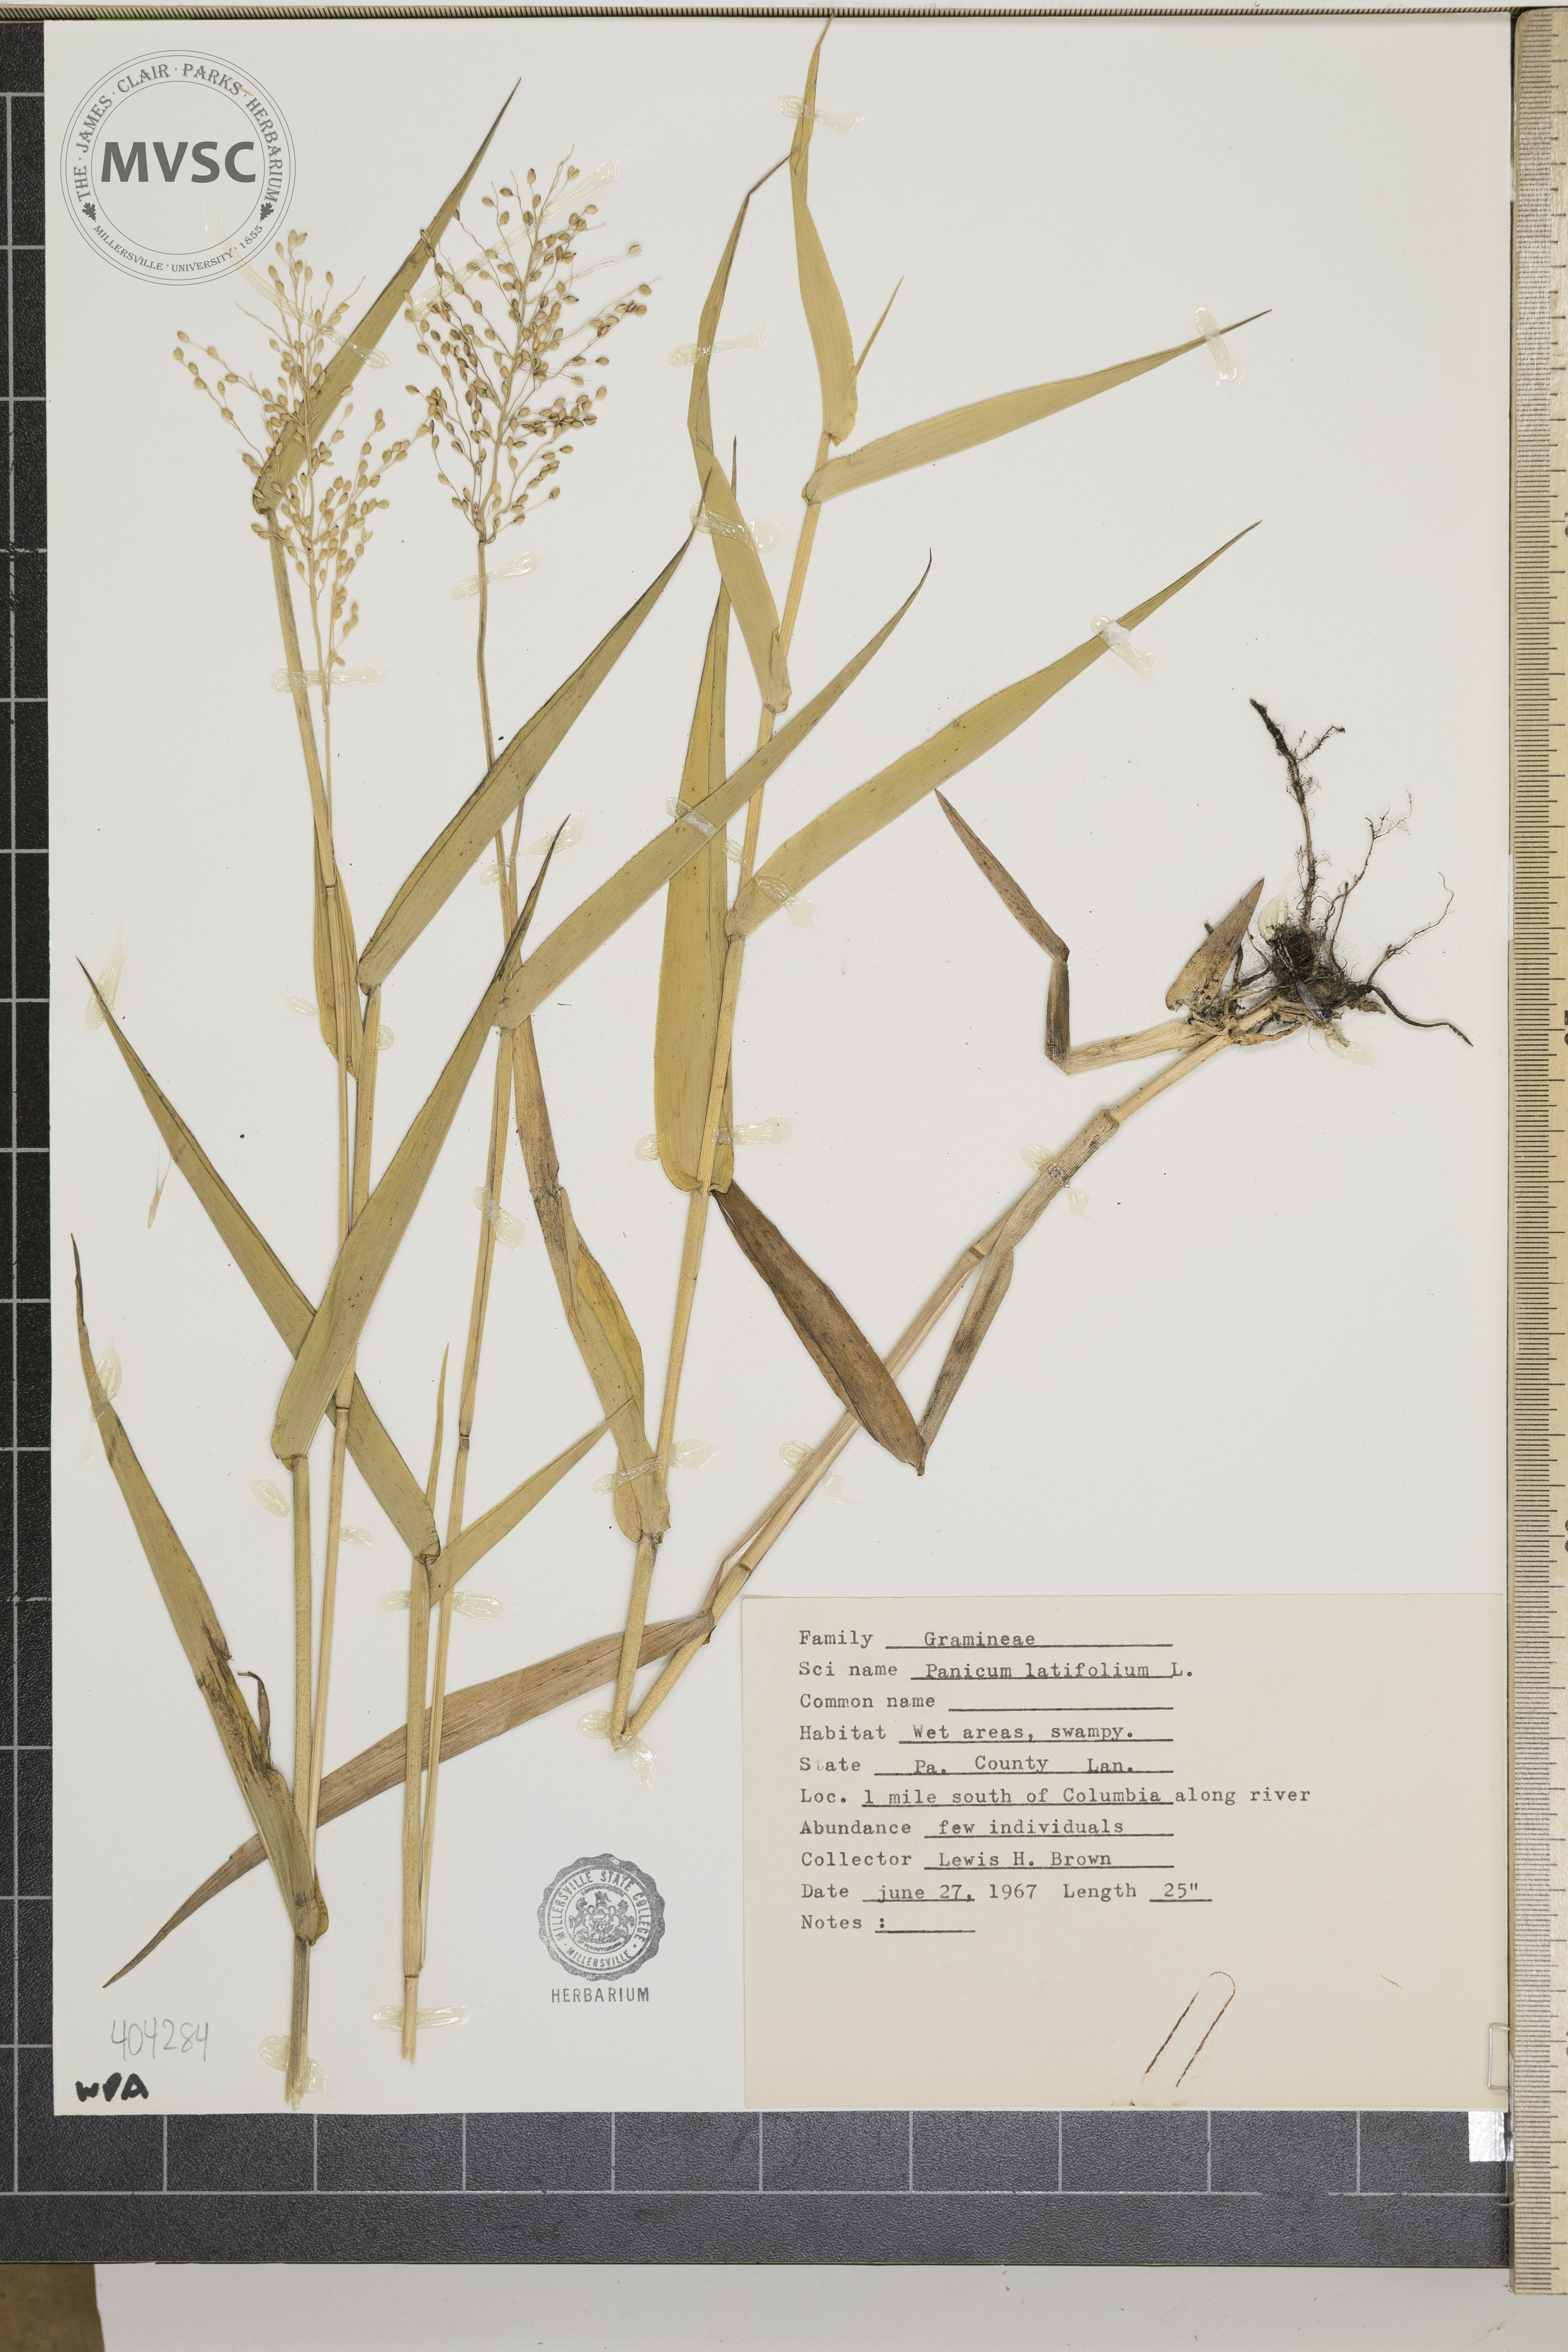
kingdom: Plantae
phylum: Tracheophyta
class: Liliopsida
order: Poales
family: Poaceae
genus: Panicum
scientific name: Panicum latifolium
